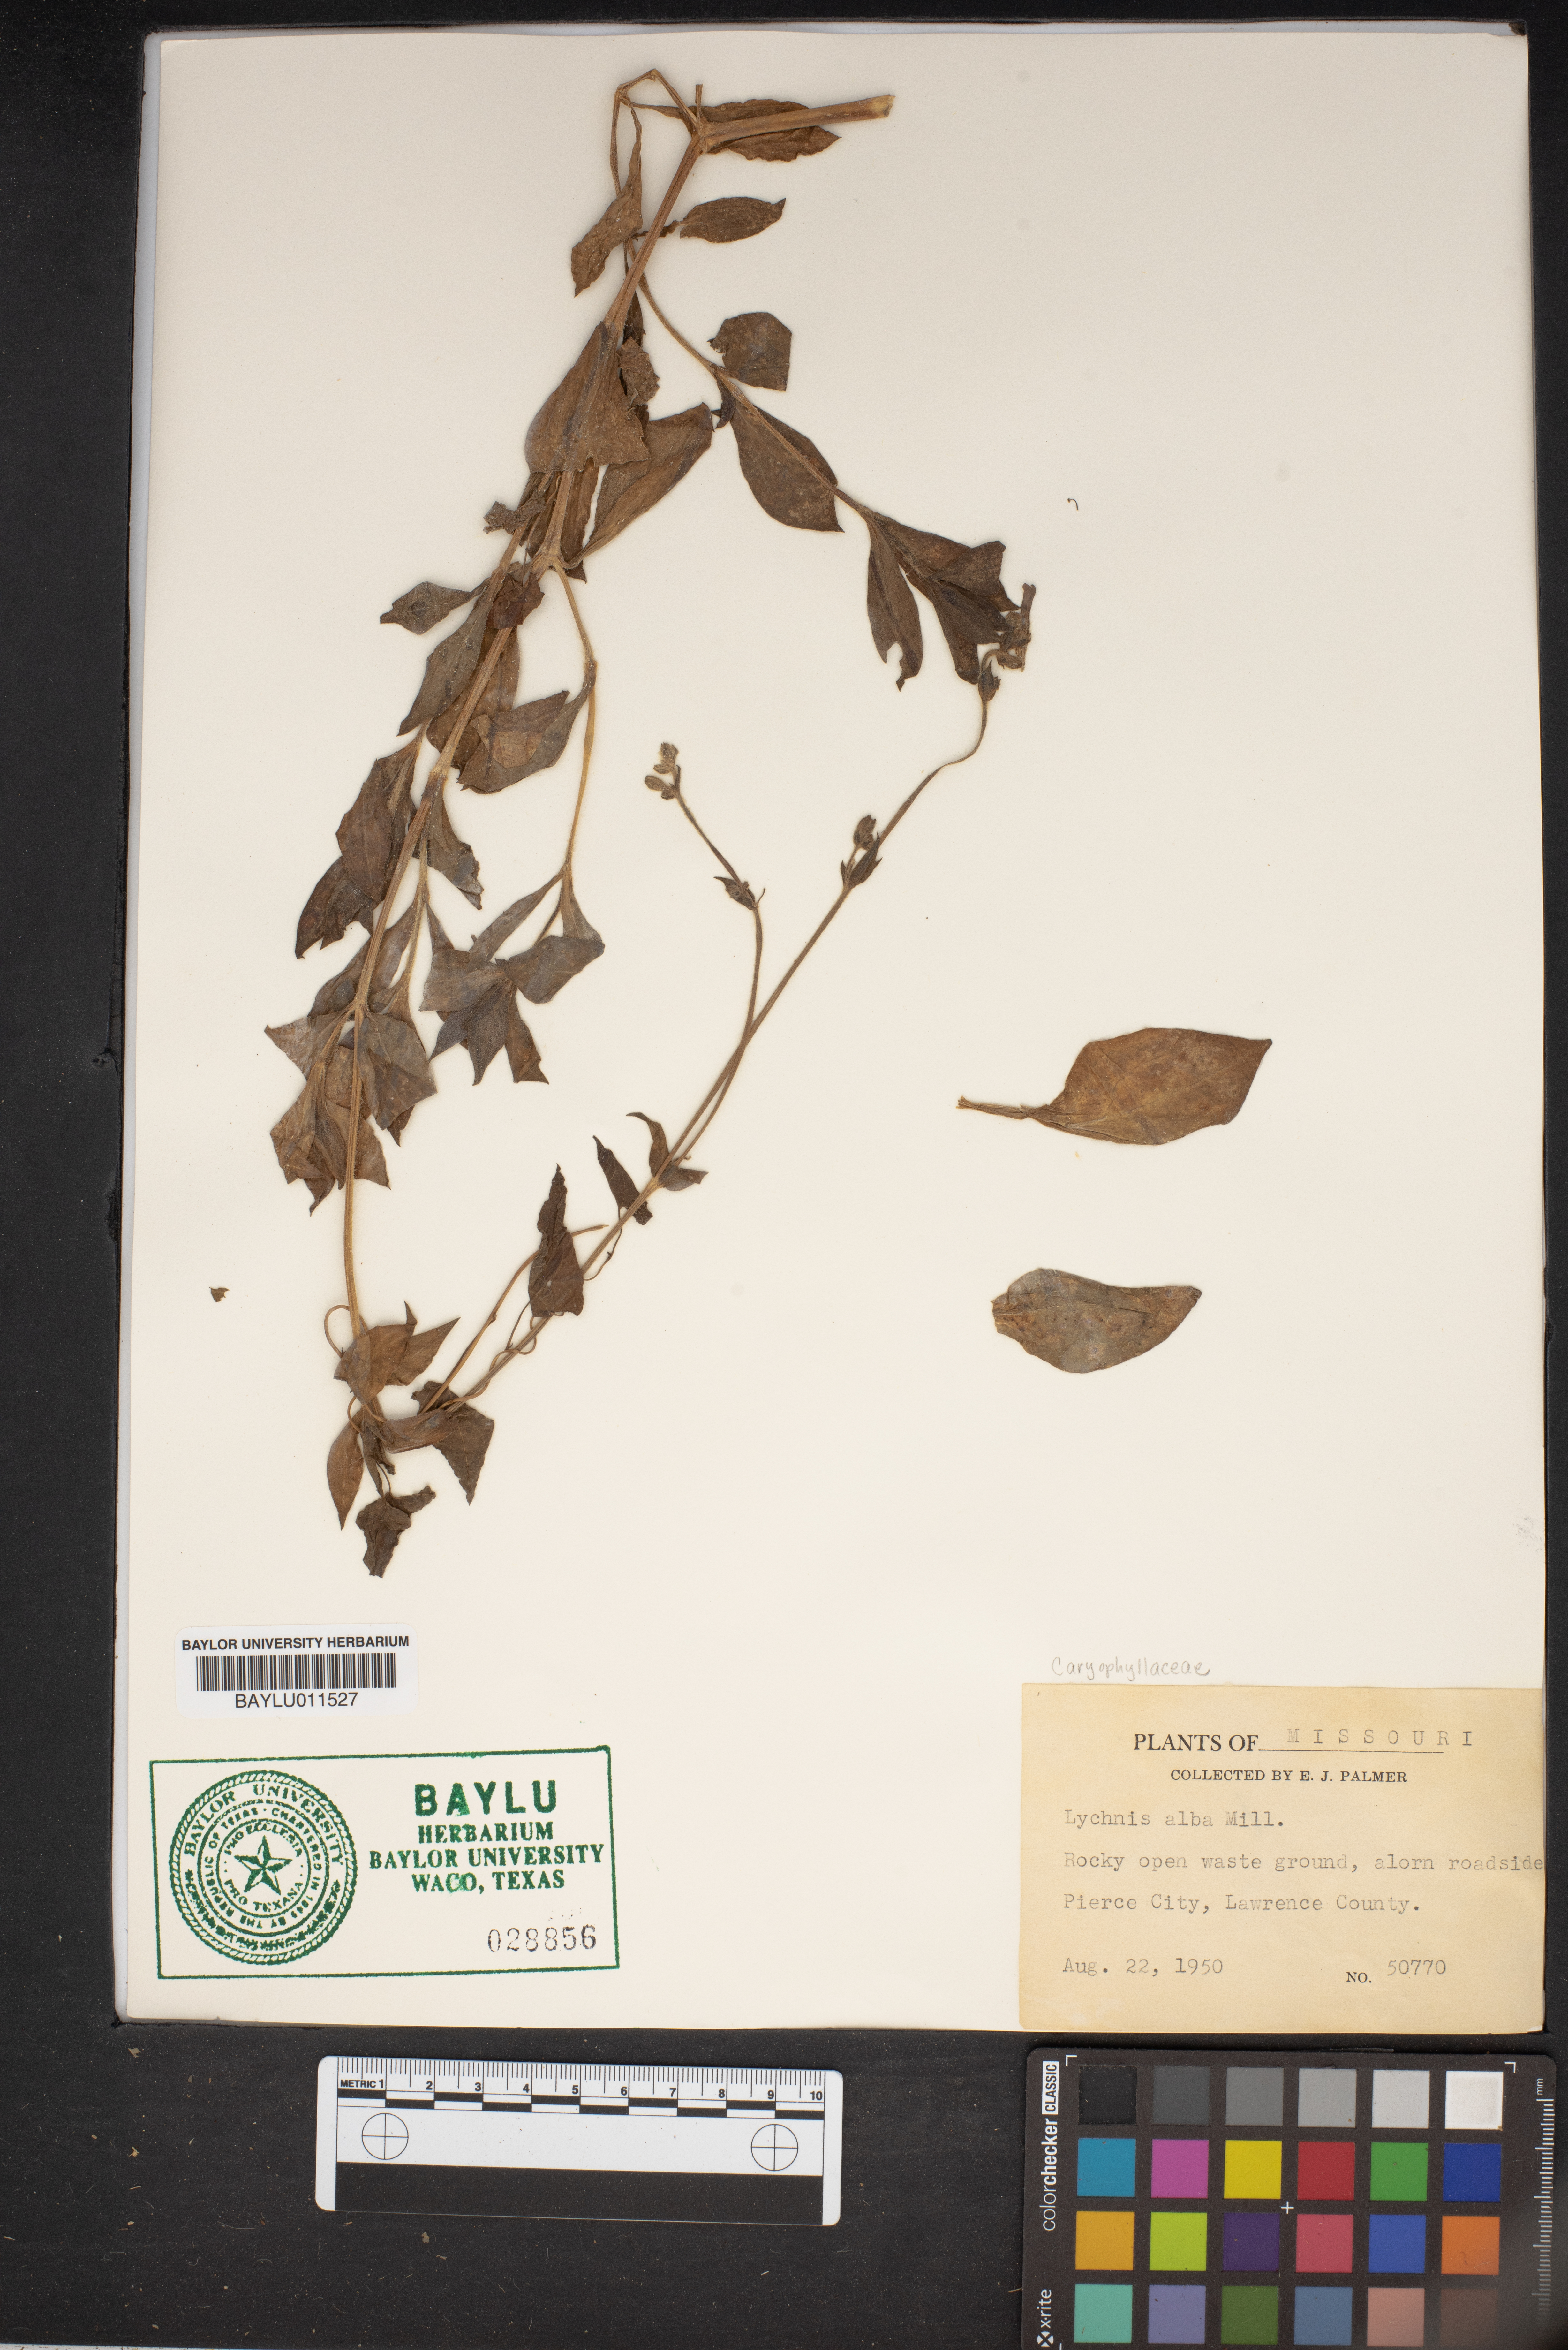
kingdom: Plantae
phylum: Tracheophyta
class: Magnoliopsida
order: Caryophyllales
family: Caryophyllaceae
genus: Silene
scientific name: Silene latifolia
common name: White campion
